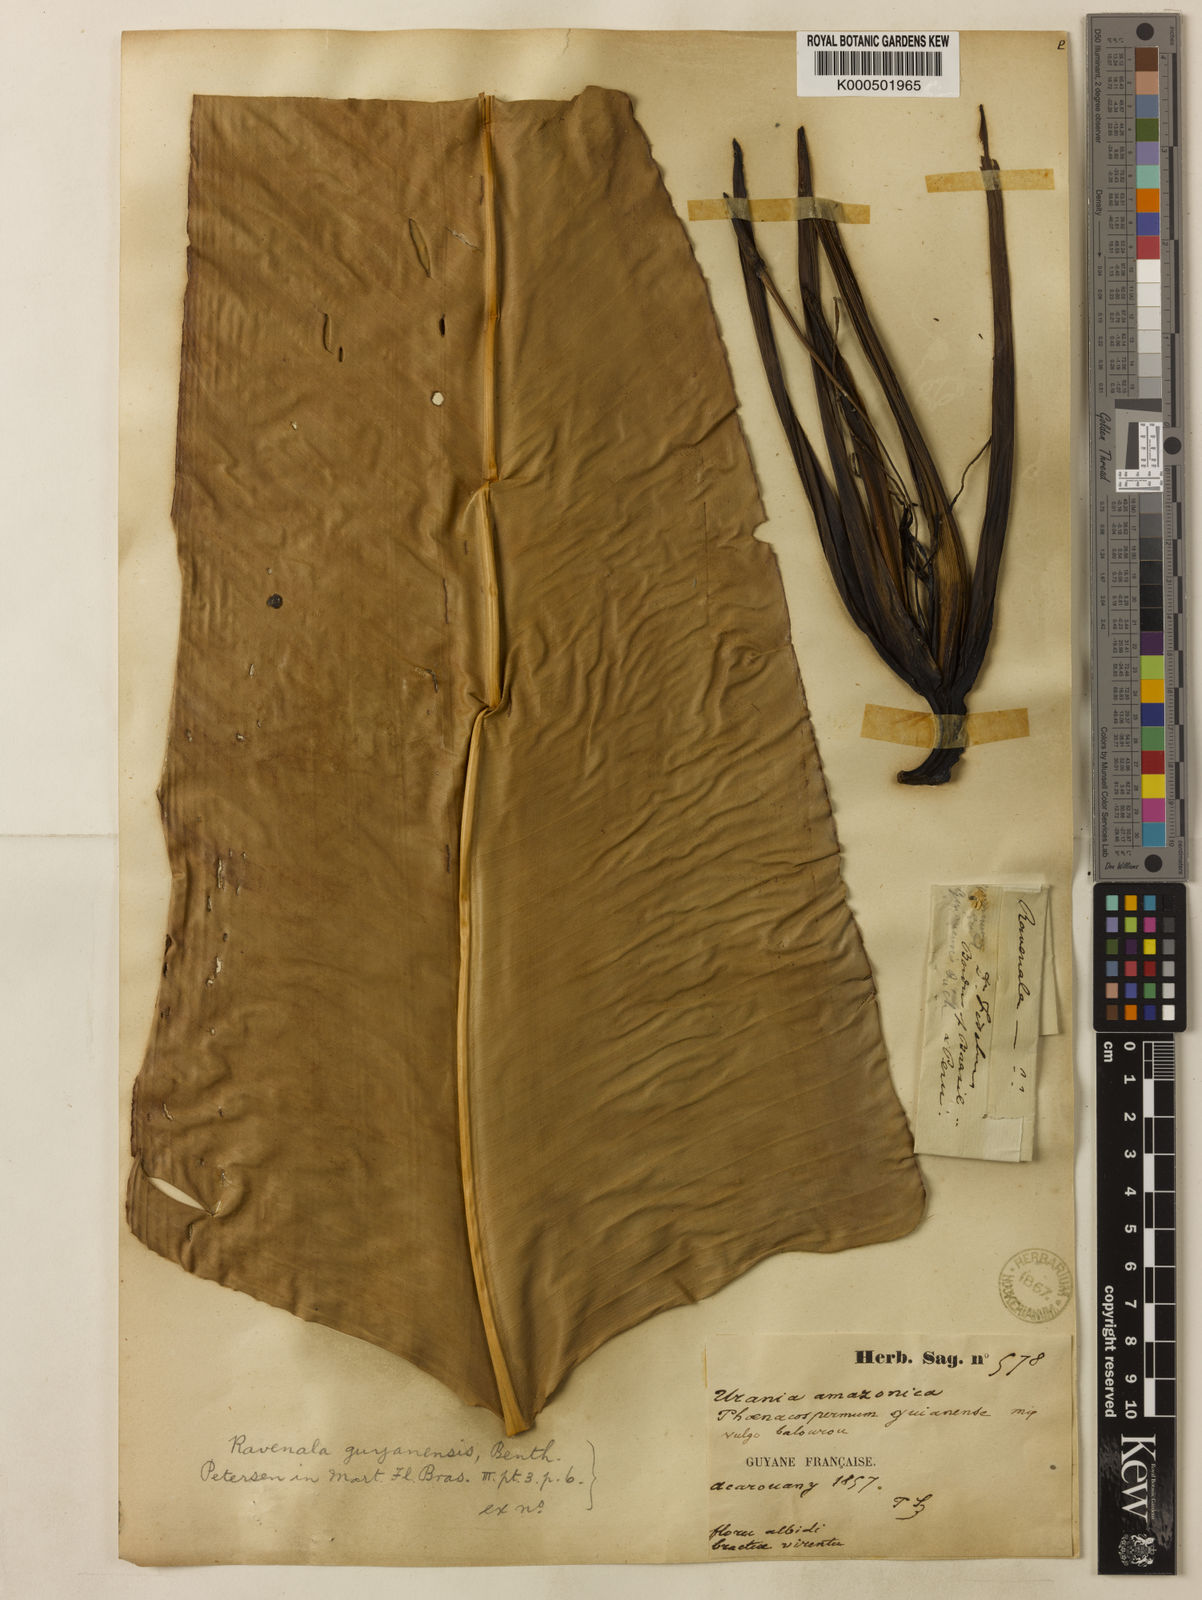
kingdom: Plantae
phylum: Tracheophyta
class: Liliopsida
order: Zingiberales
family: Strelitziaceae
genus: Phenakospermum
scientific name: Phenakospermum guyannense
